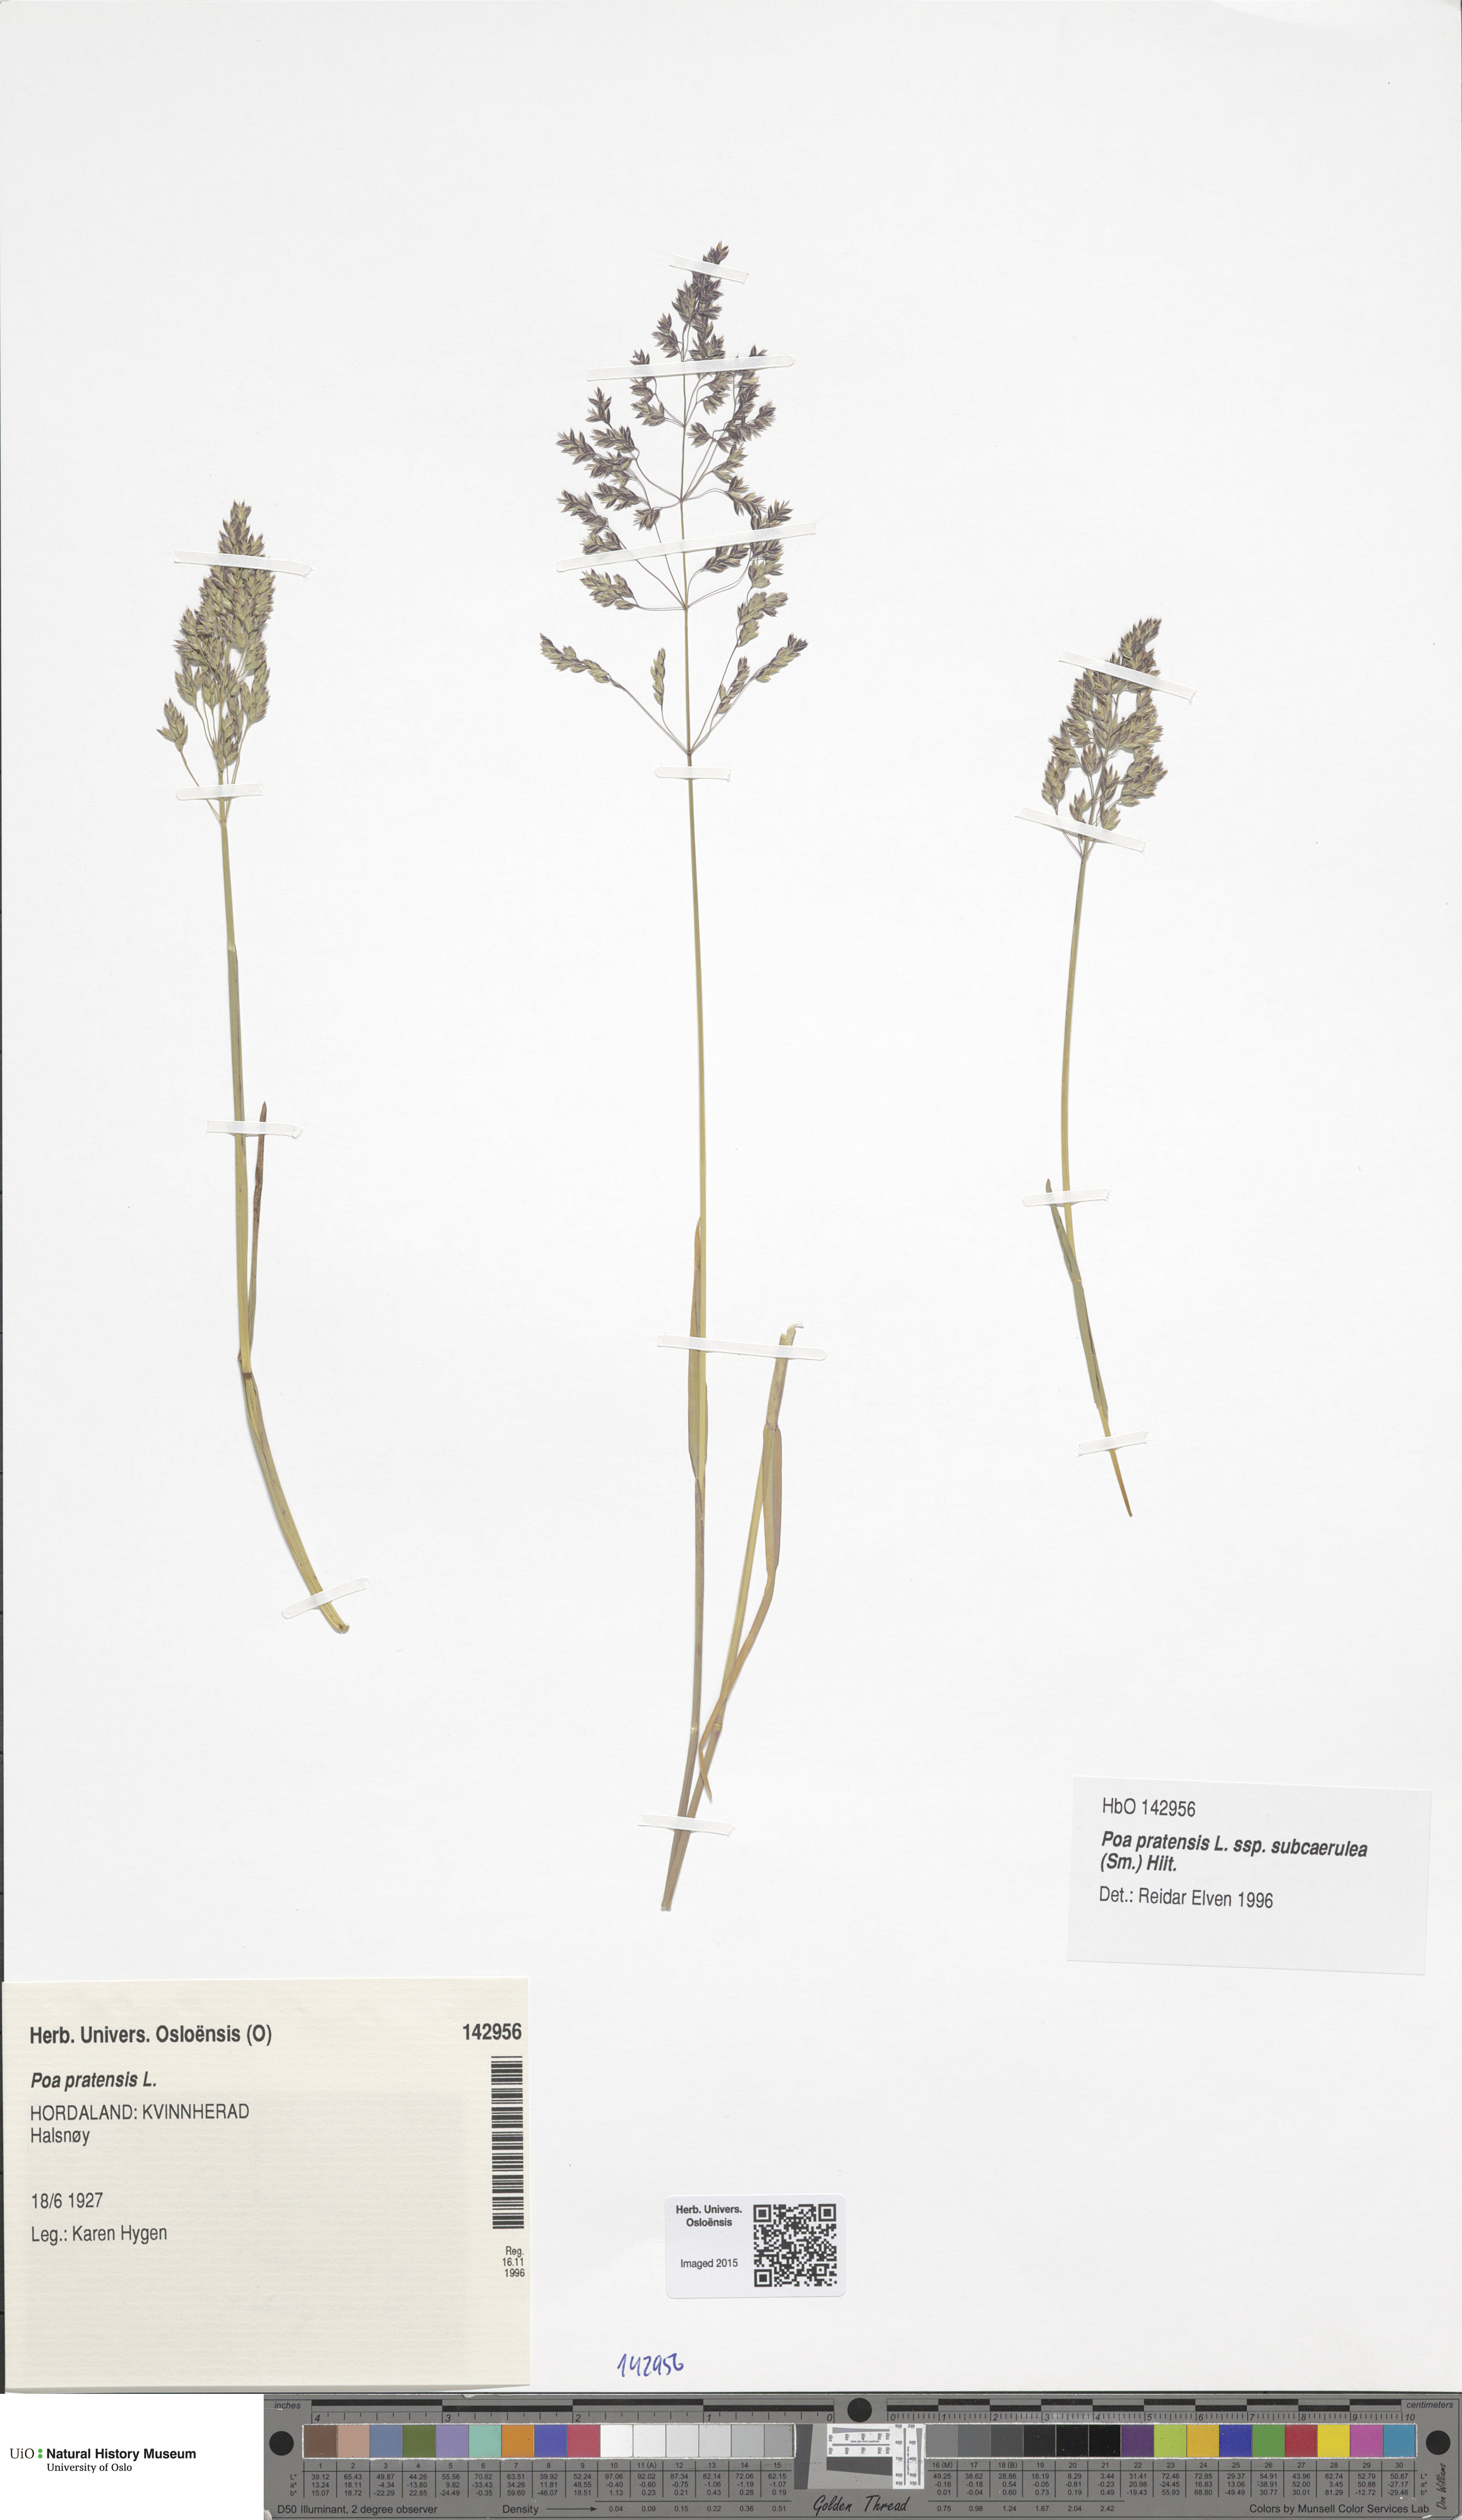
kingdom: Plantae
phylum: Tracheophyta
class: Liliopsida
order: Poales
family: Poaceae
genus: Poa
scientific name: Poa humilis
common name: Spreading meadow-grass
